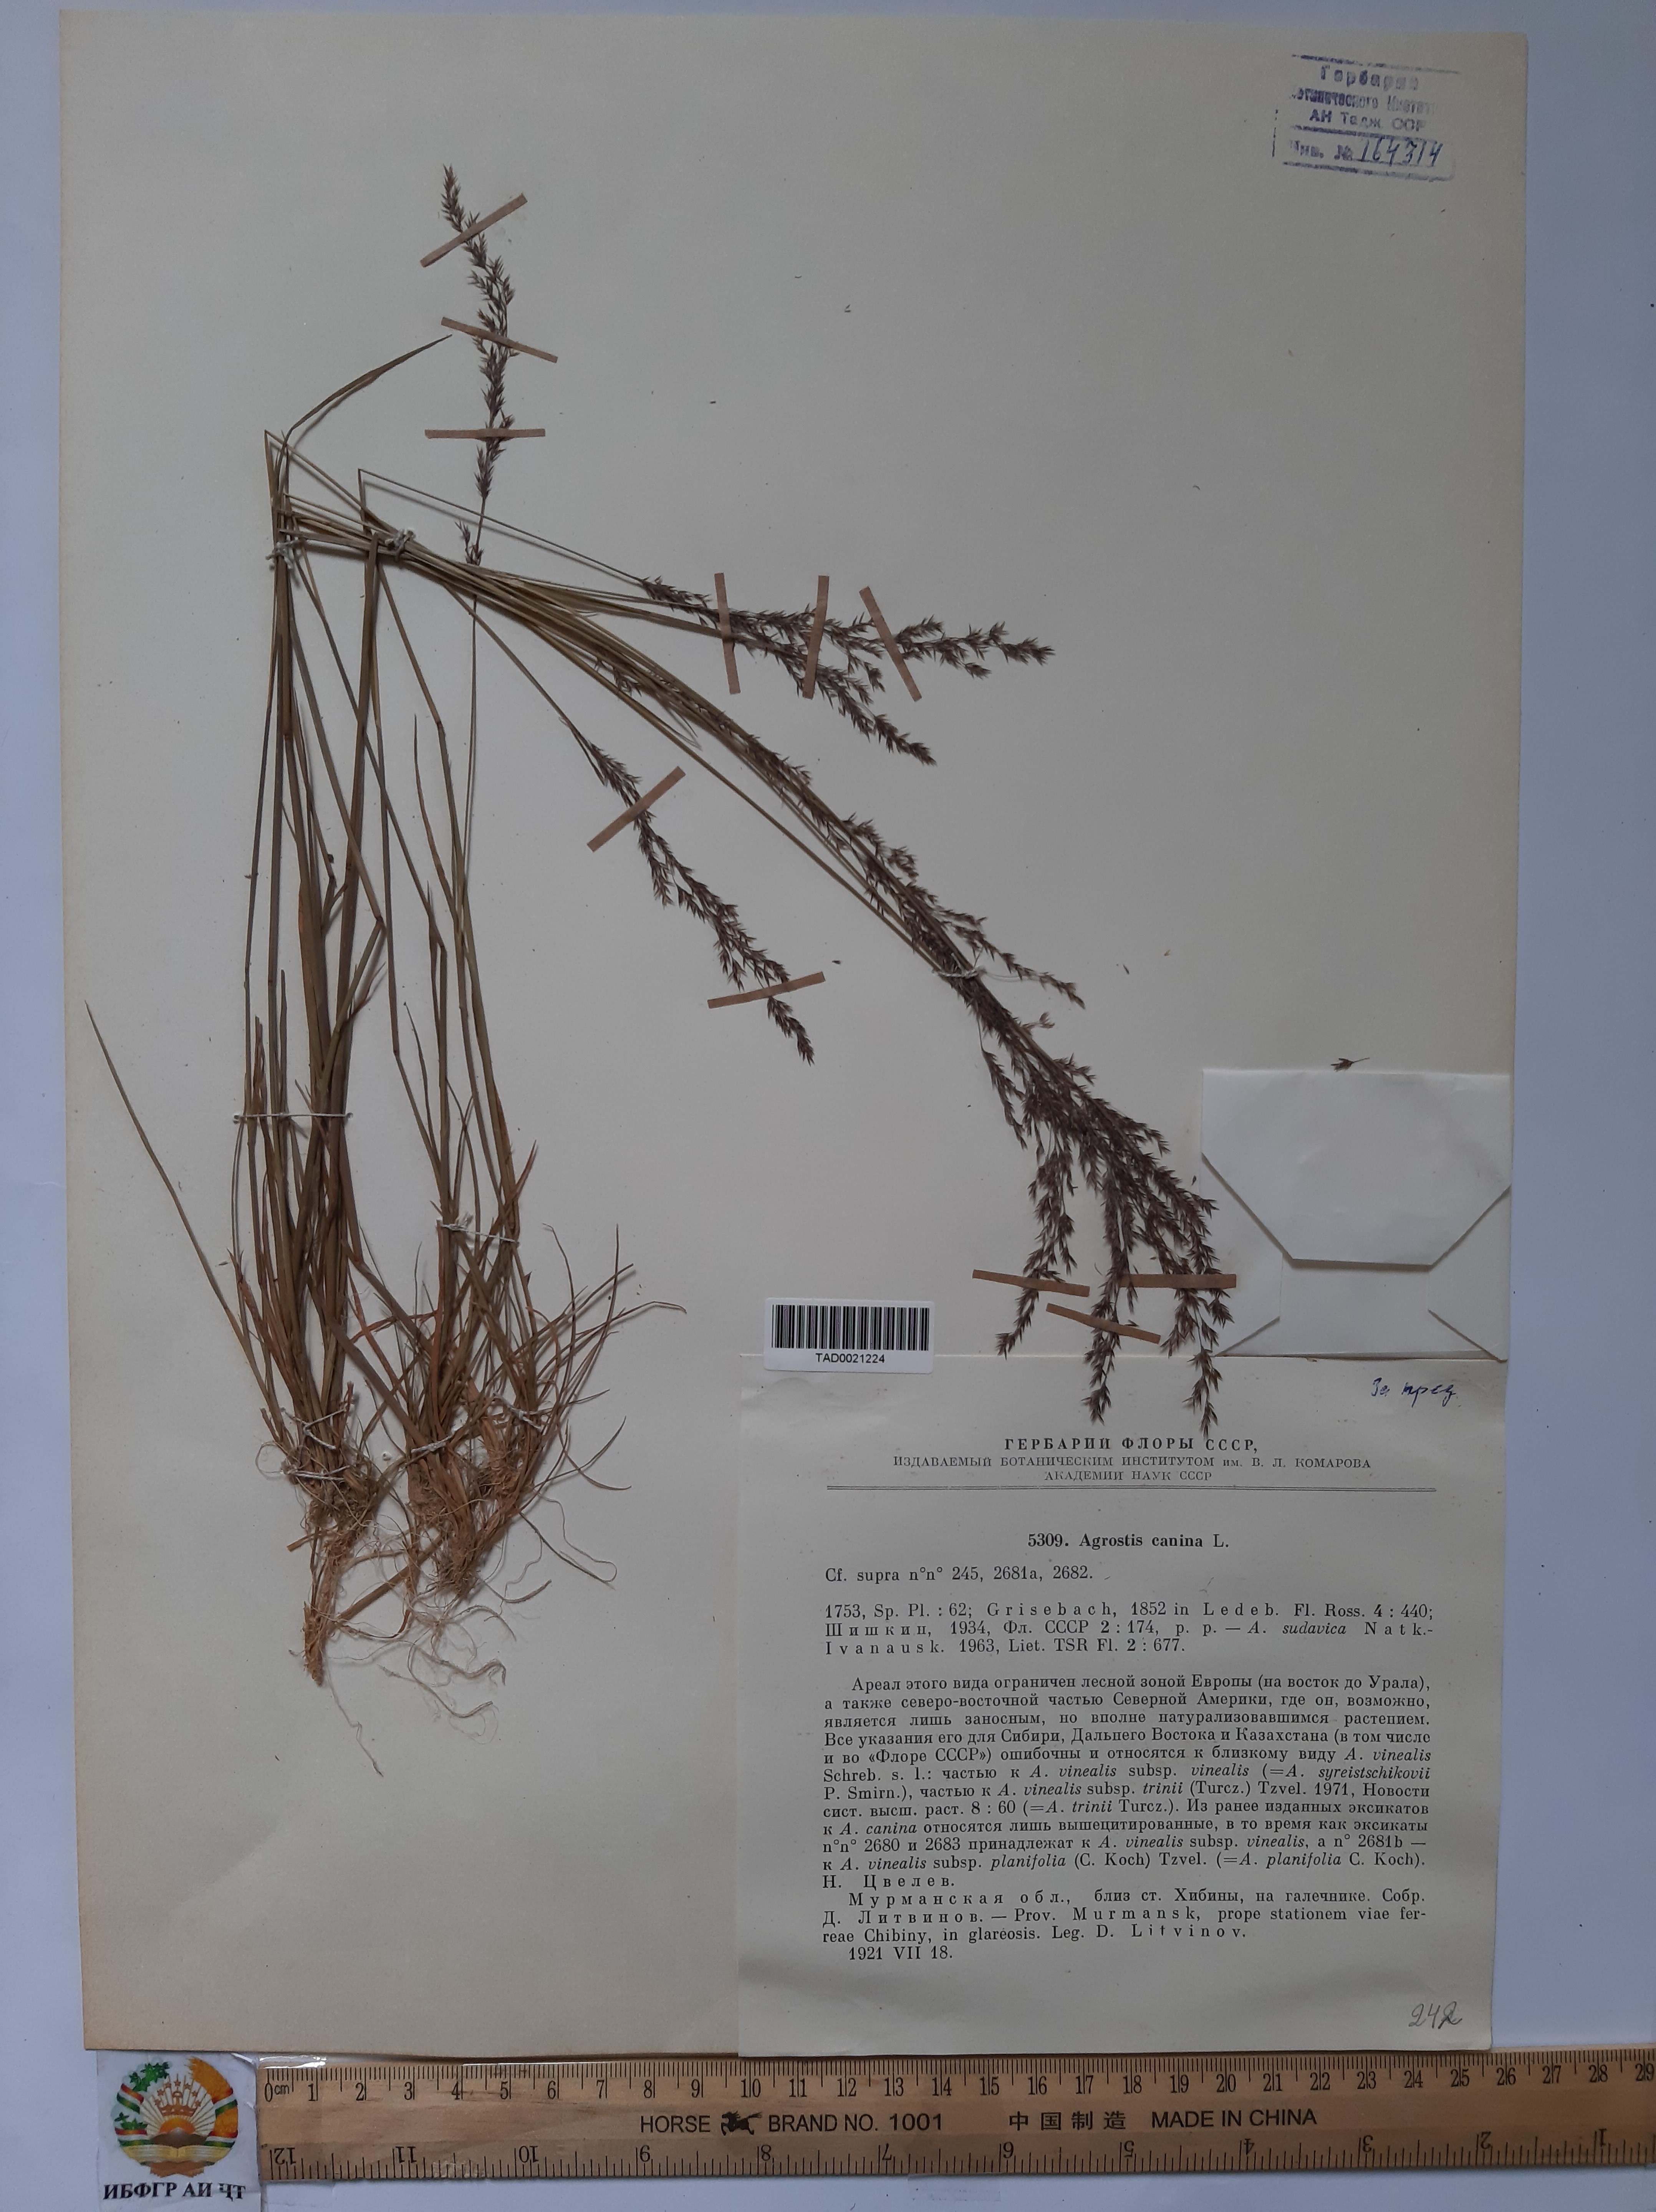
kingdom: Plantae
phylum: Tracheophyta
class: Liliopsida
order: Poales
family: Poaceae
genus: Agrostis
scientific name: Agrostis canina
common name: Velvet bent
